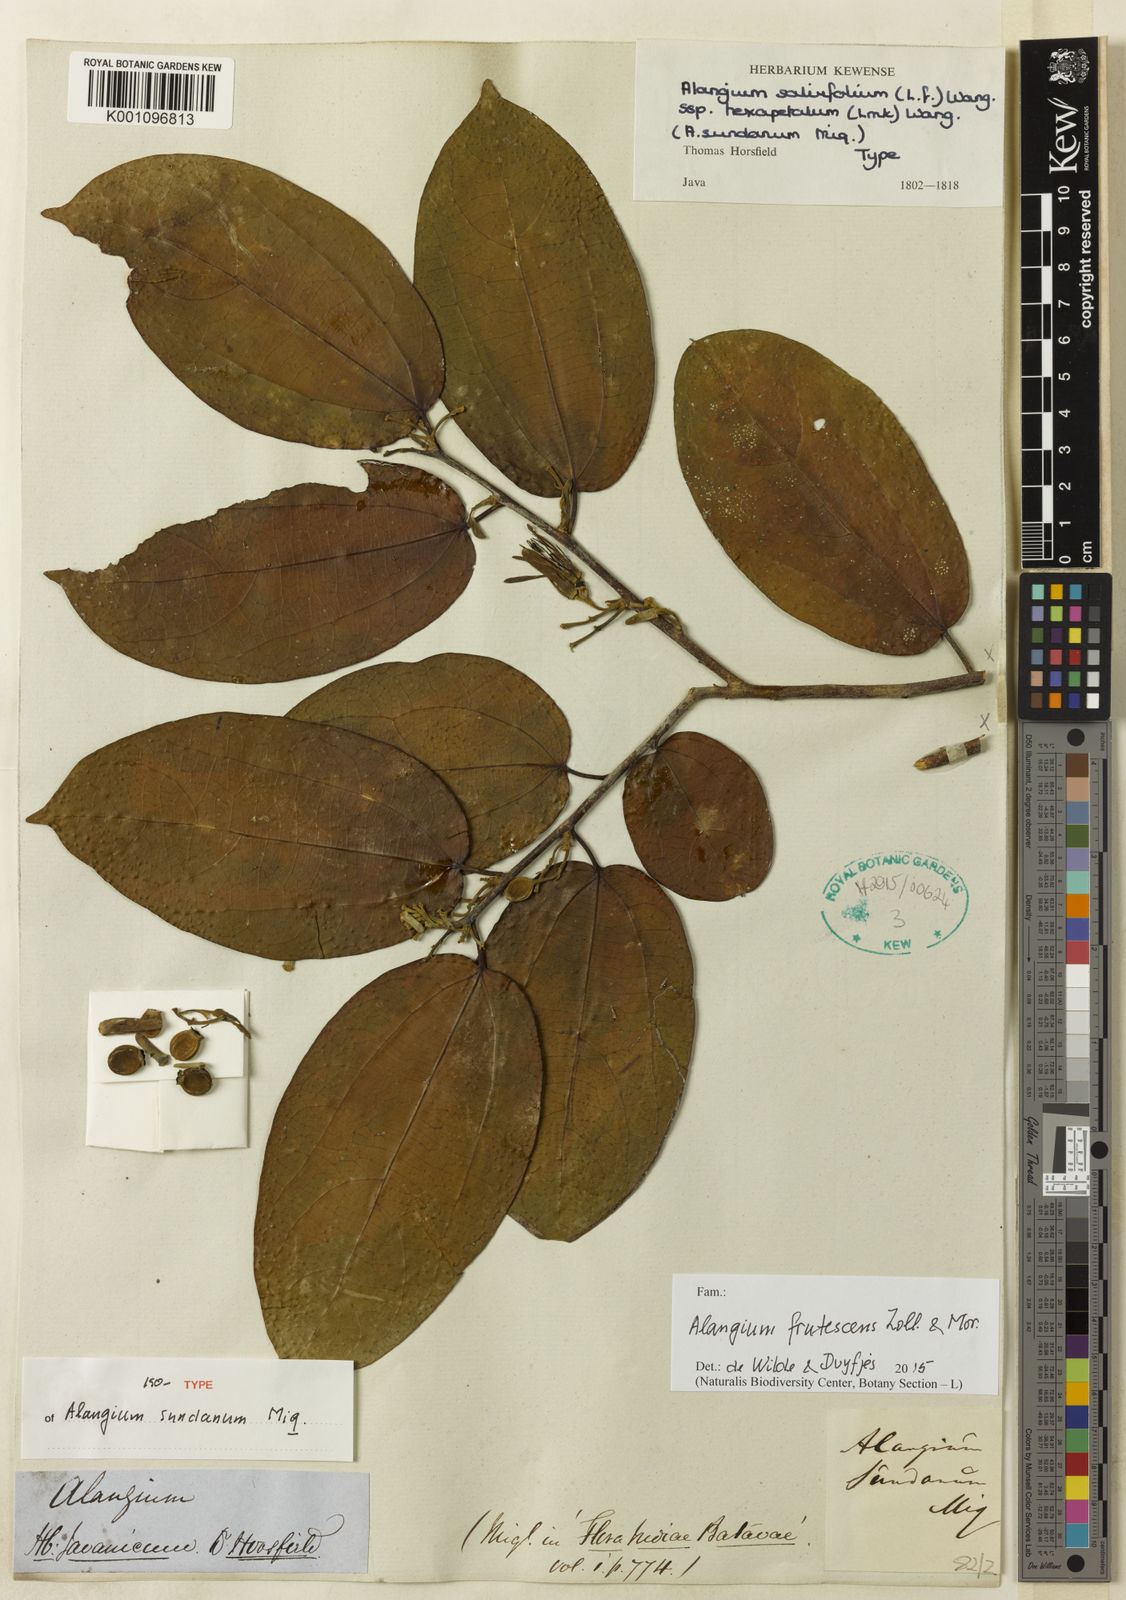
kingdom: Plantae
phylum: Tracheophyta
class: Magnoliopsida
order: Cornales
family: Cornaceae
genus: Alangium
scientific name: Alangium salviifolium
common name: Sage-leaf alangium
